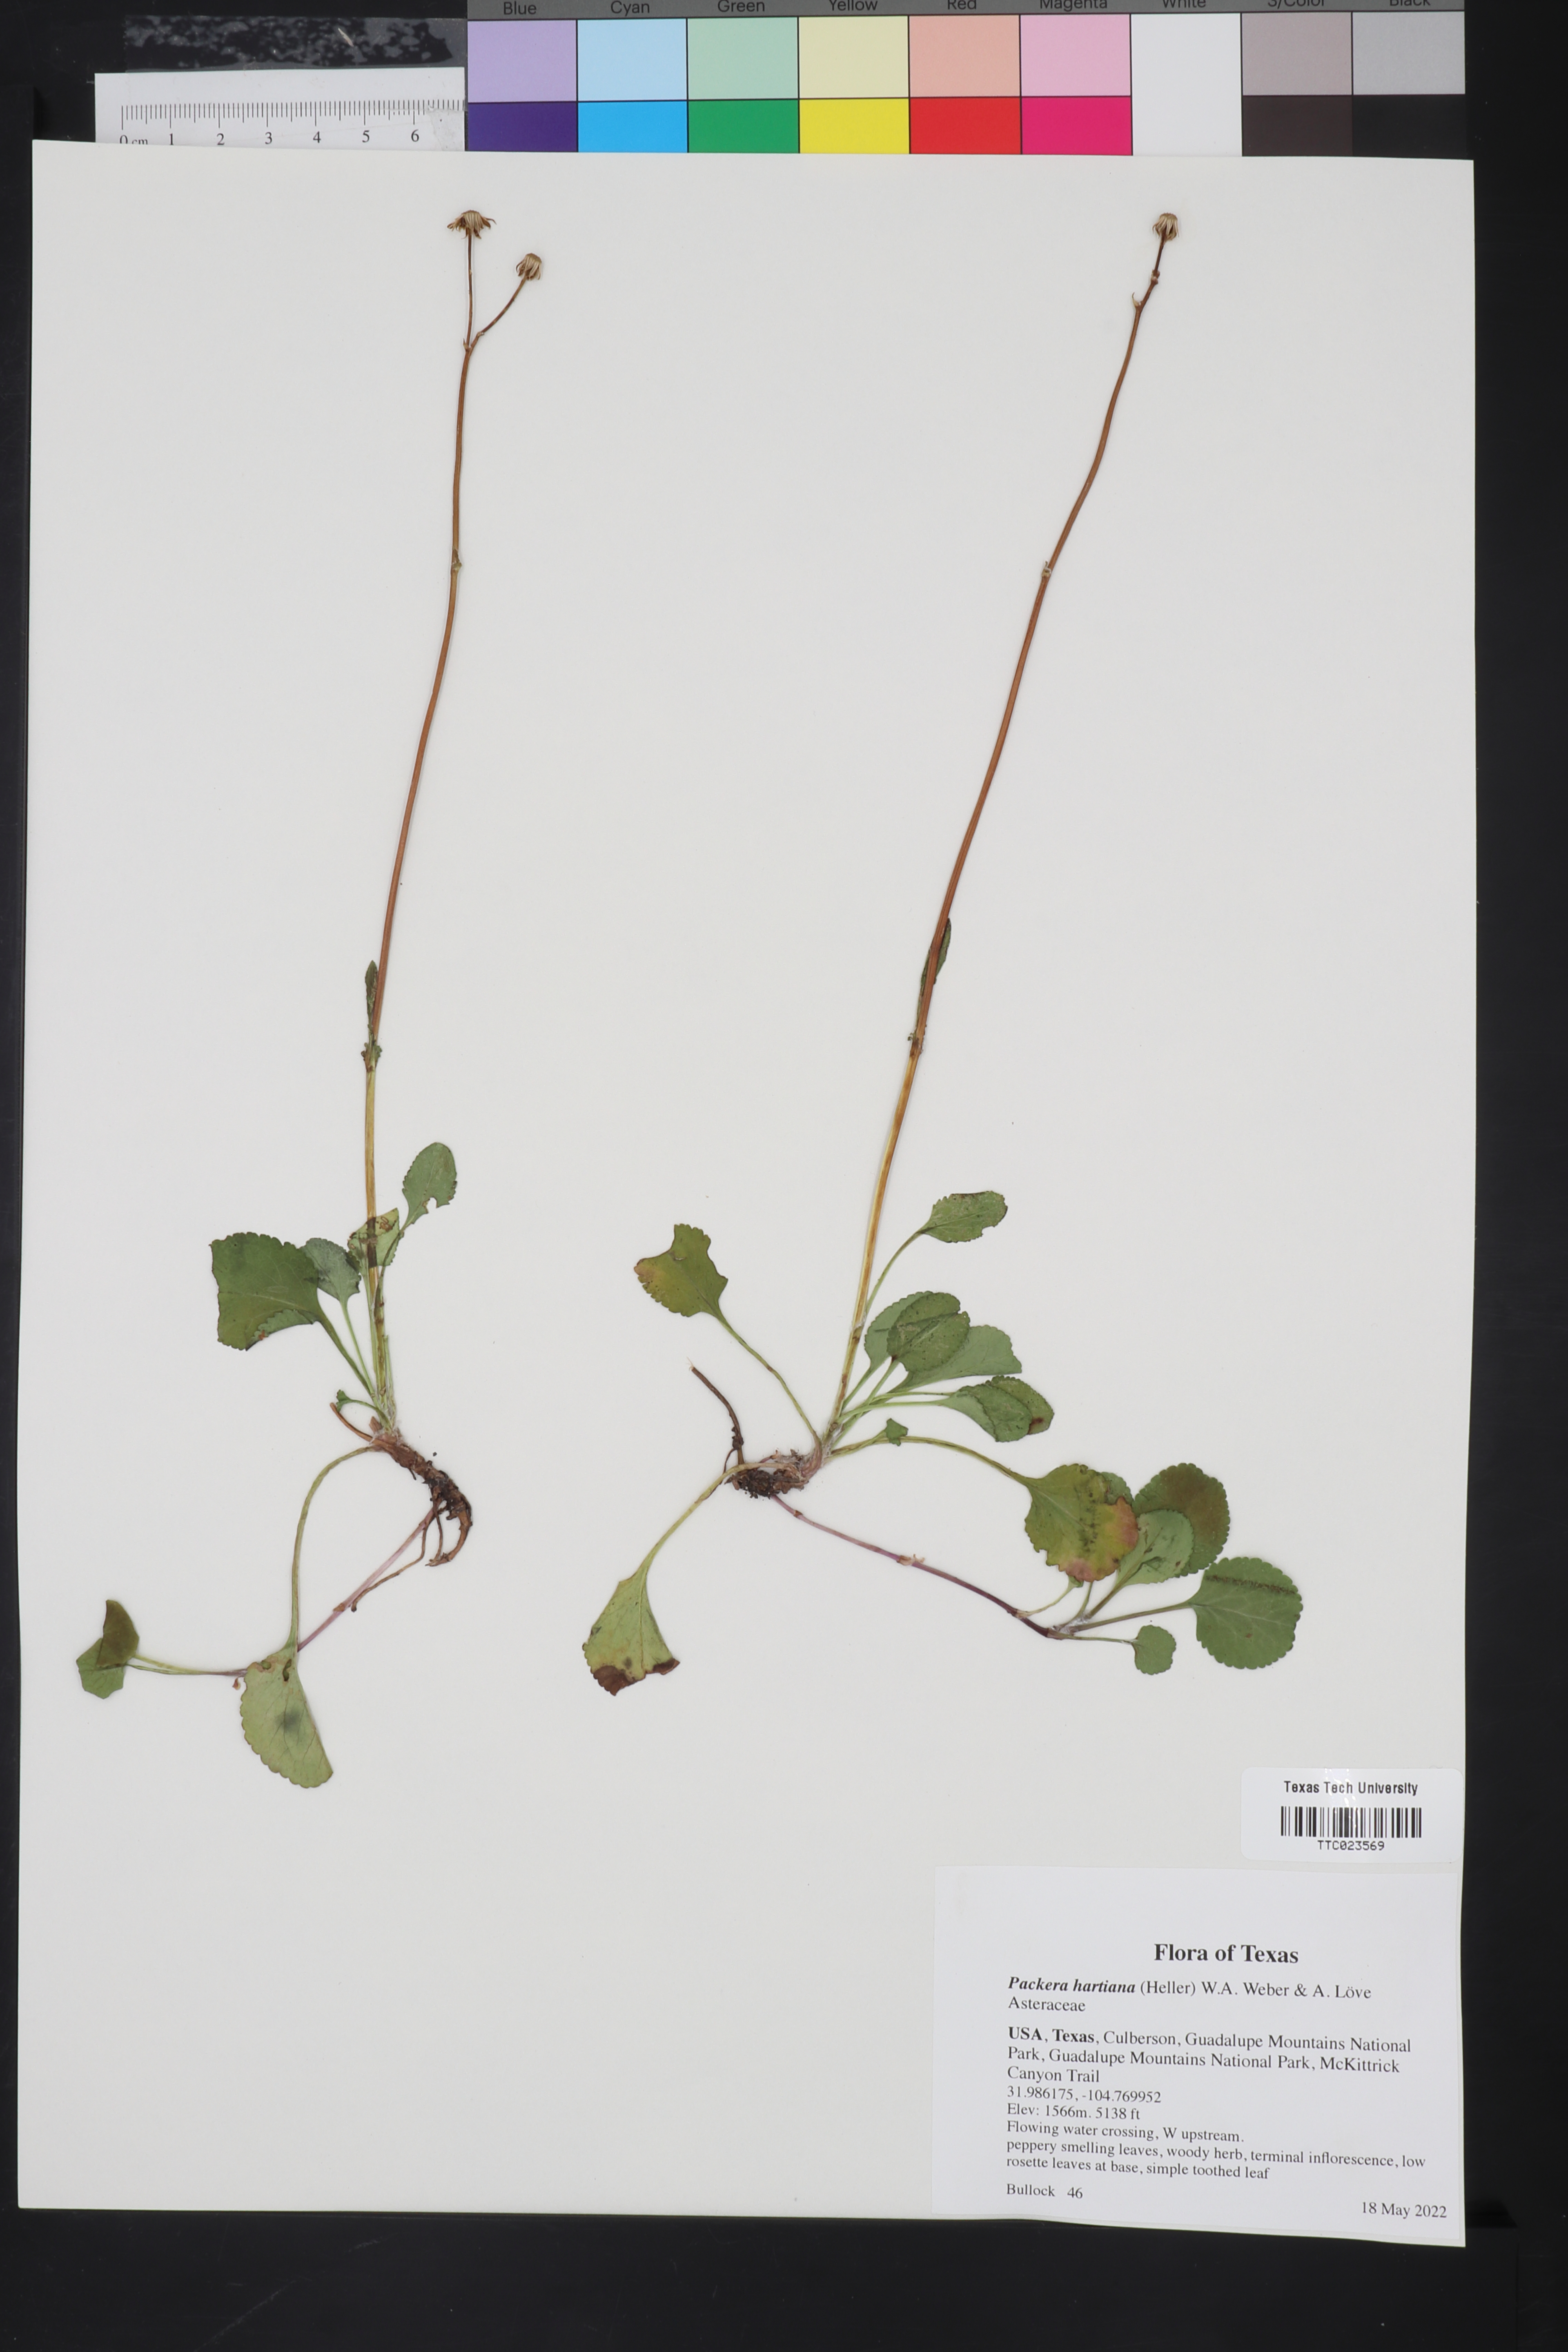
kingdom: Plantae
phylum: Tracheophyta
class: Magnoliopsida
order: Asterales
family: Asteraceae
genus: Packera
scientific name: Packera hartiana
